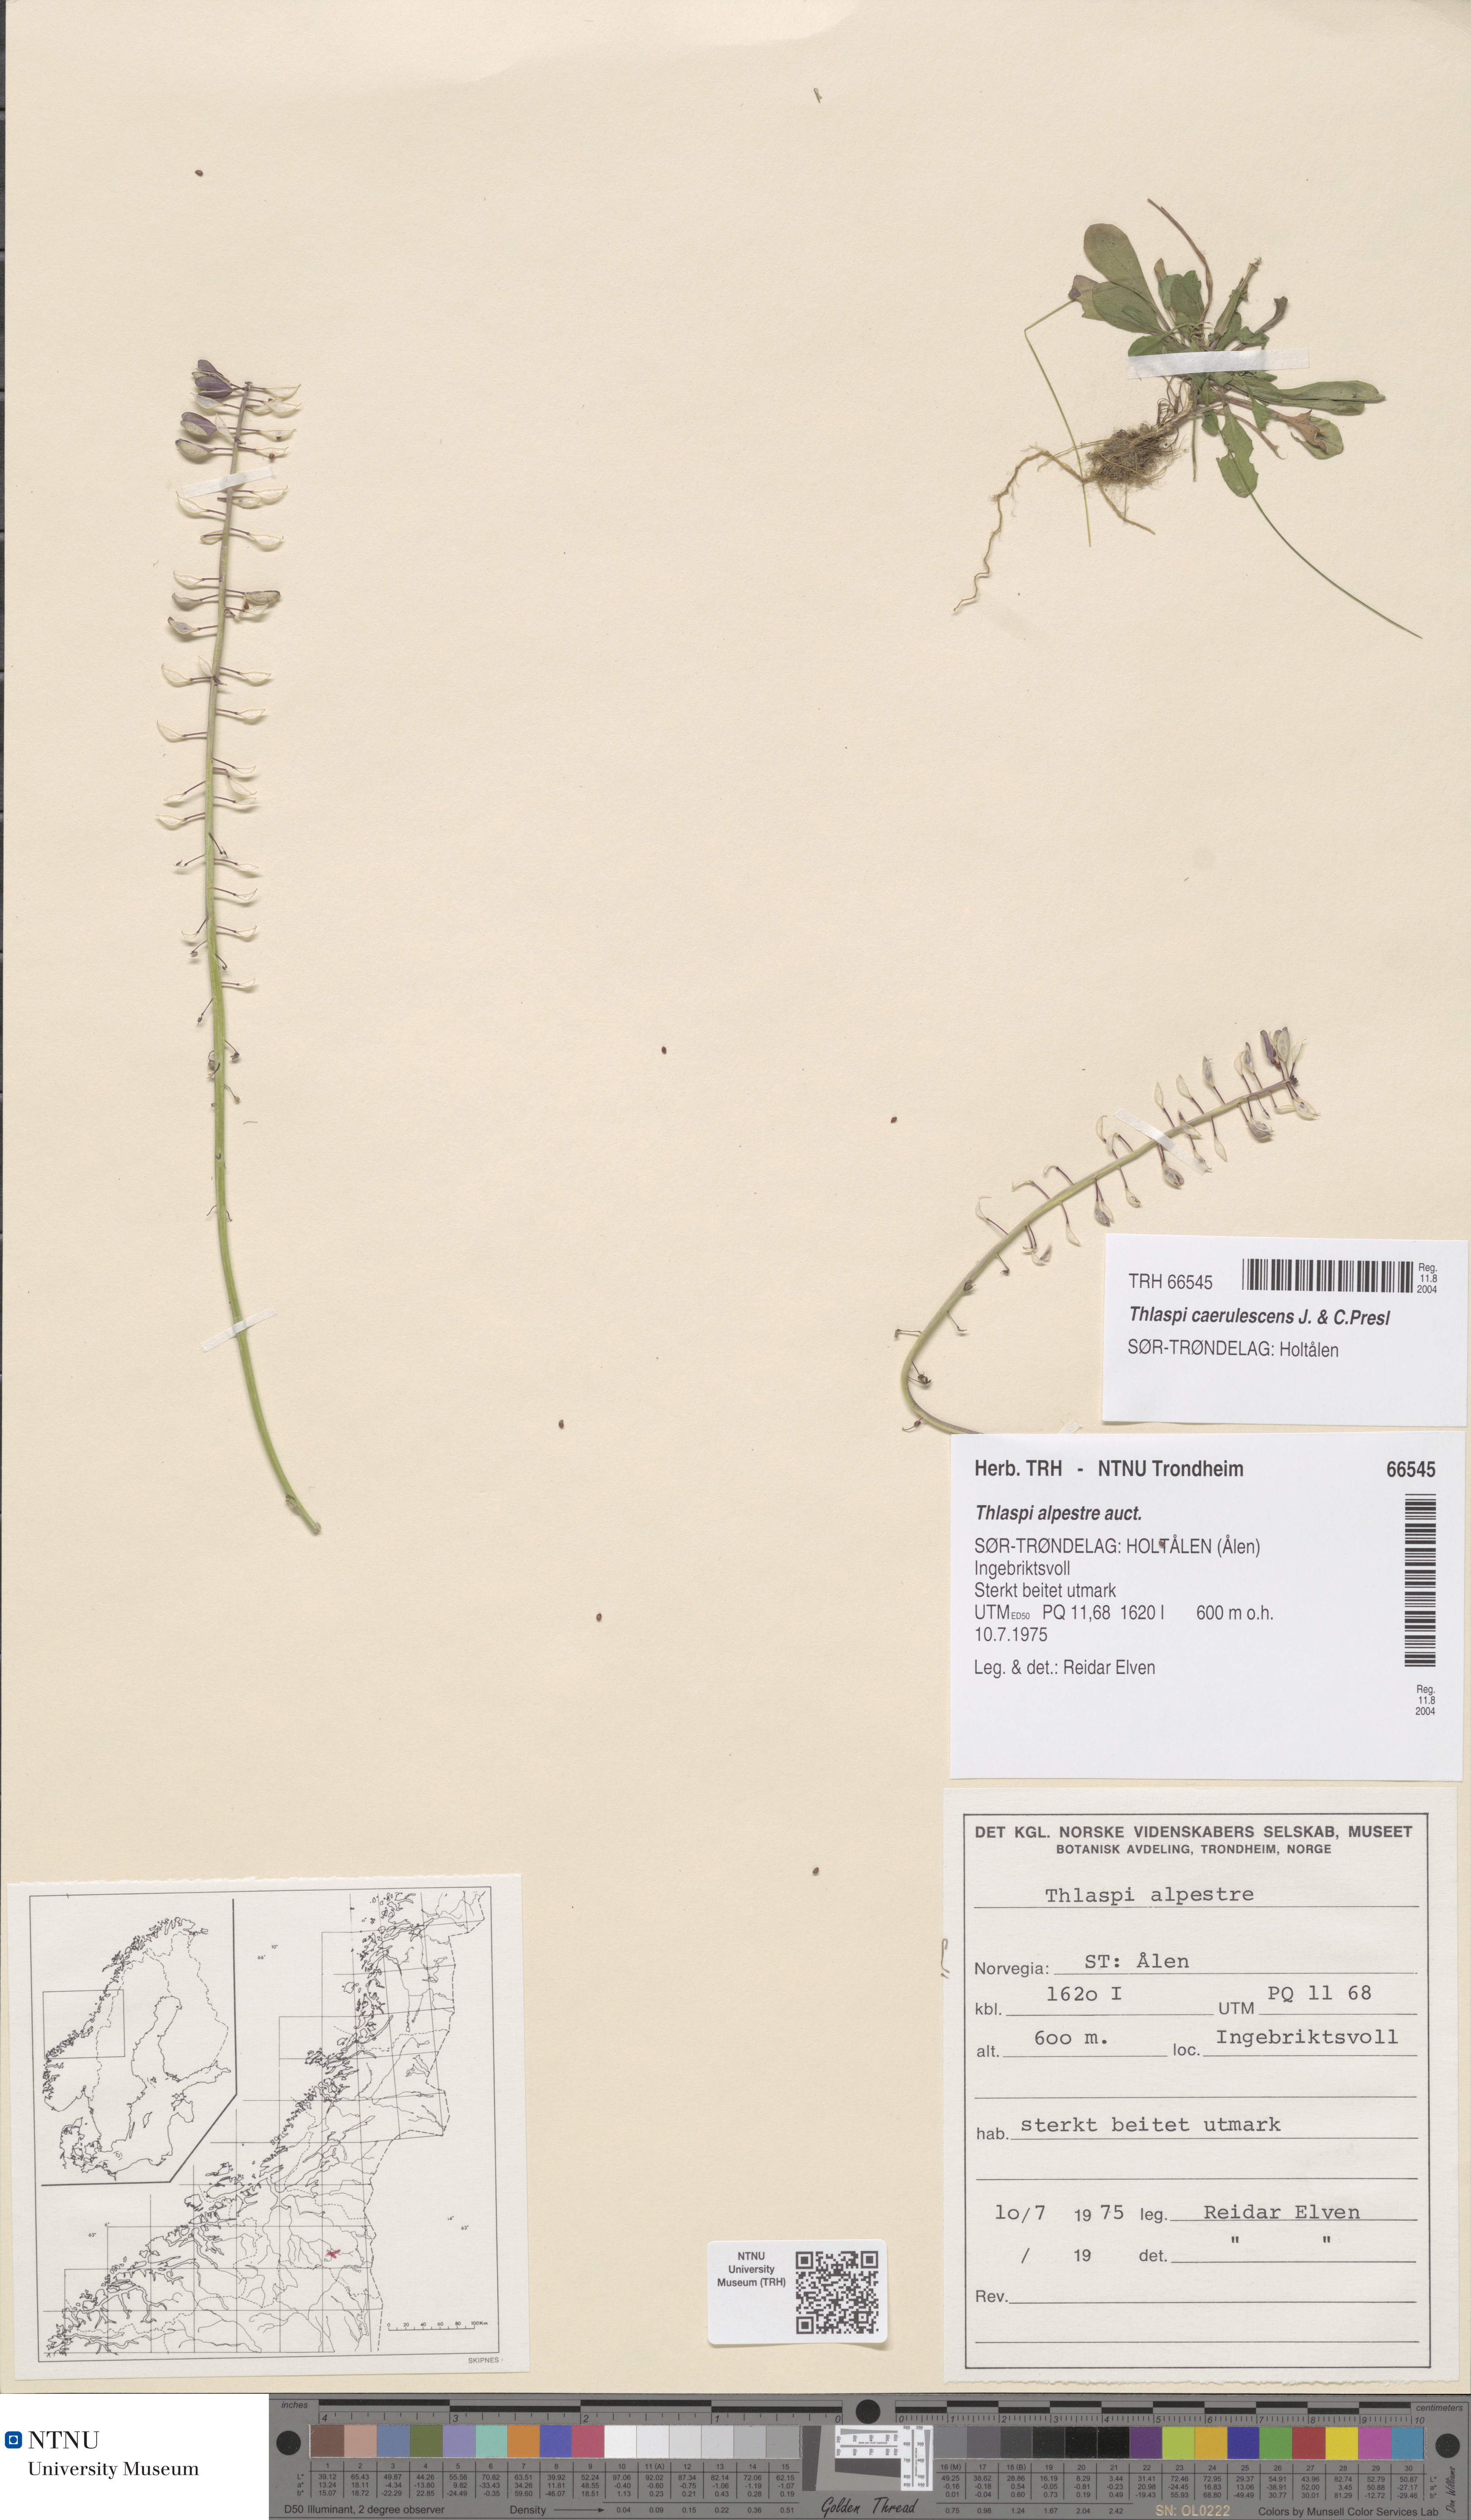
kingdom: Plantae
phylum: Tracheophyta
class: Magnoliopsida
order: Brassicales
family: Brassicaceae
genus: Noccaea
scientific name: Noccaea caerulescens
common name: Alpine pennycress
